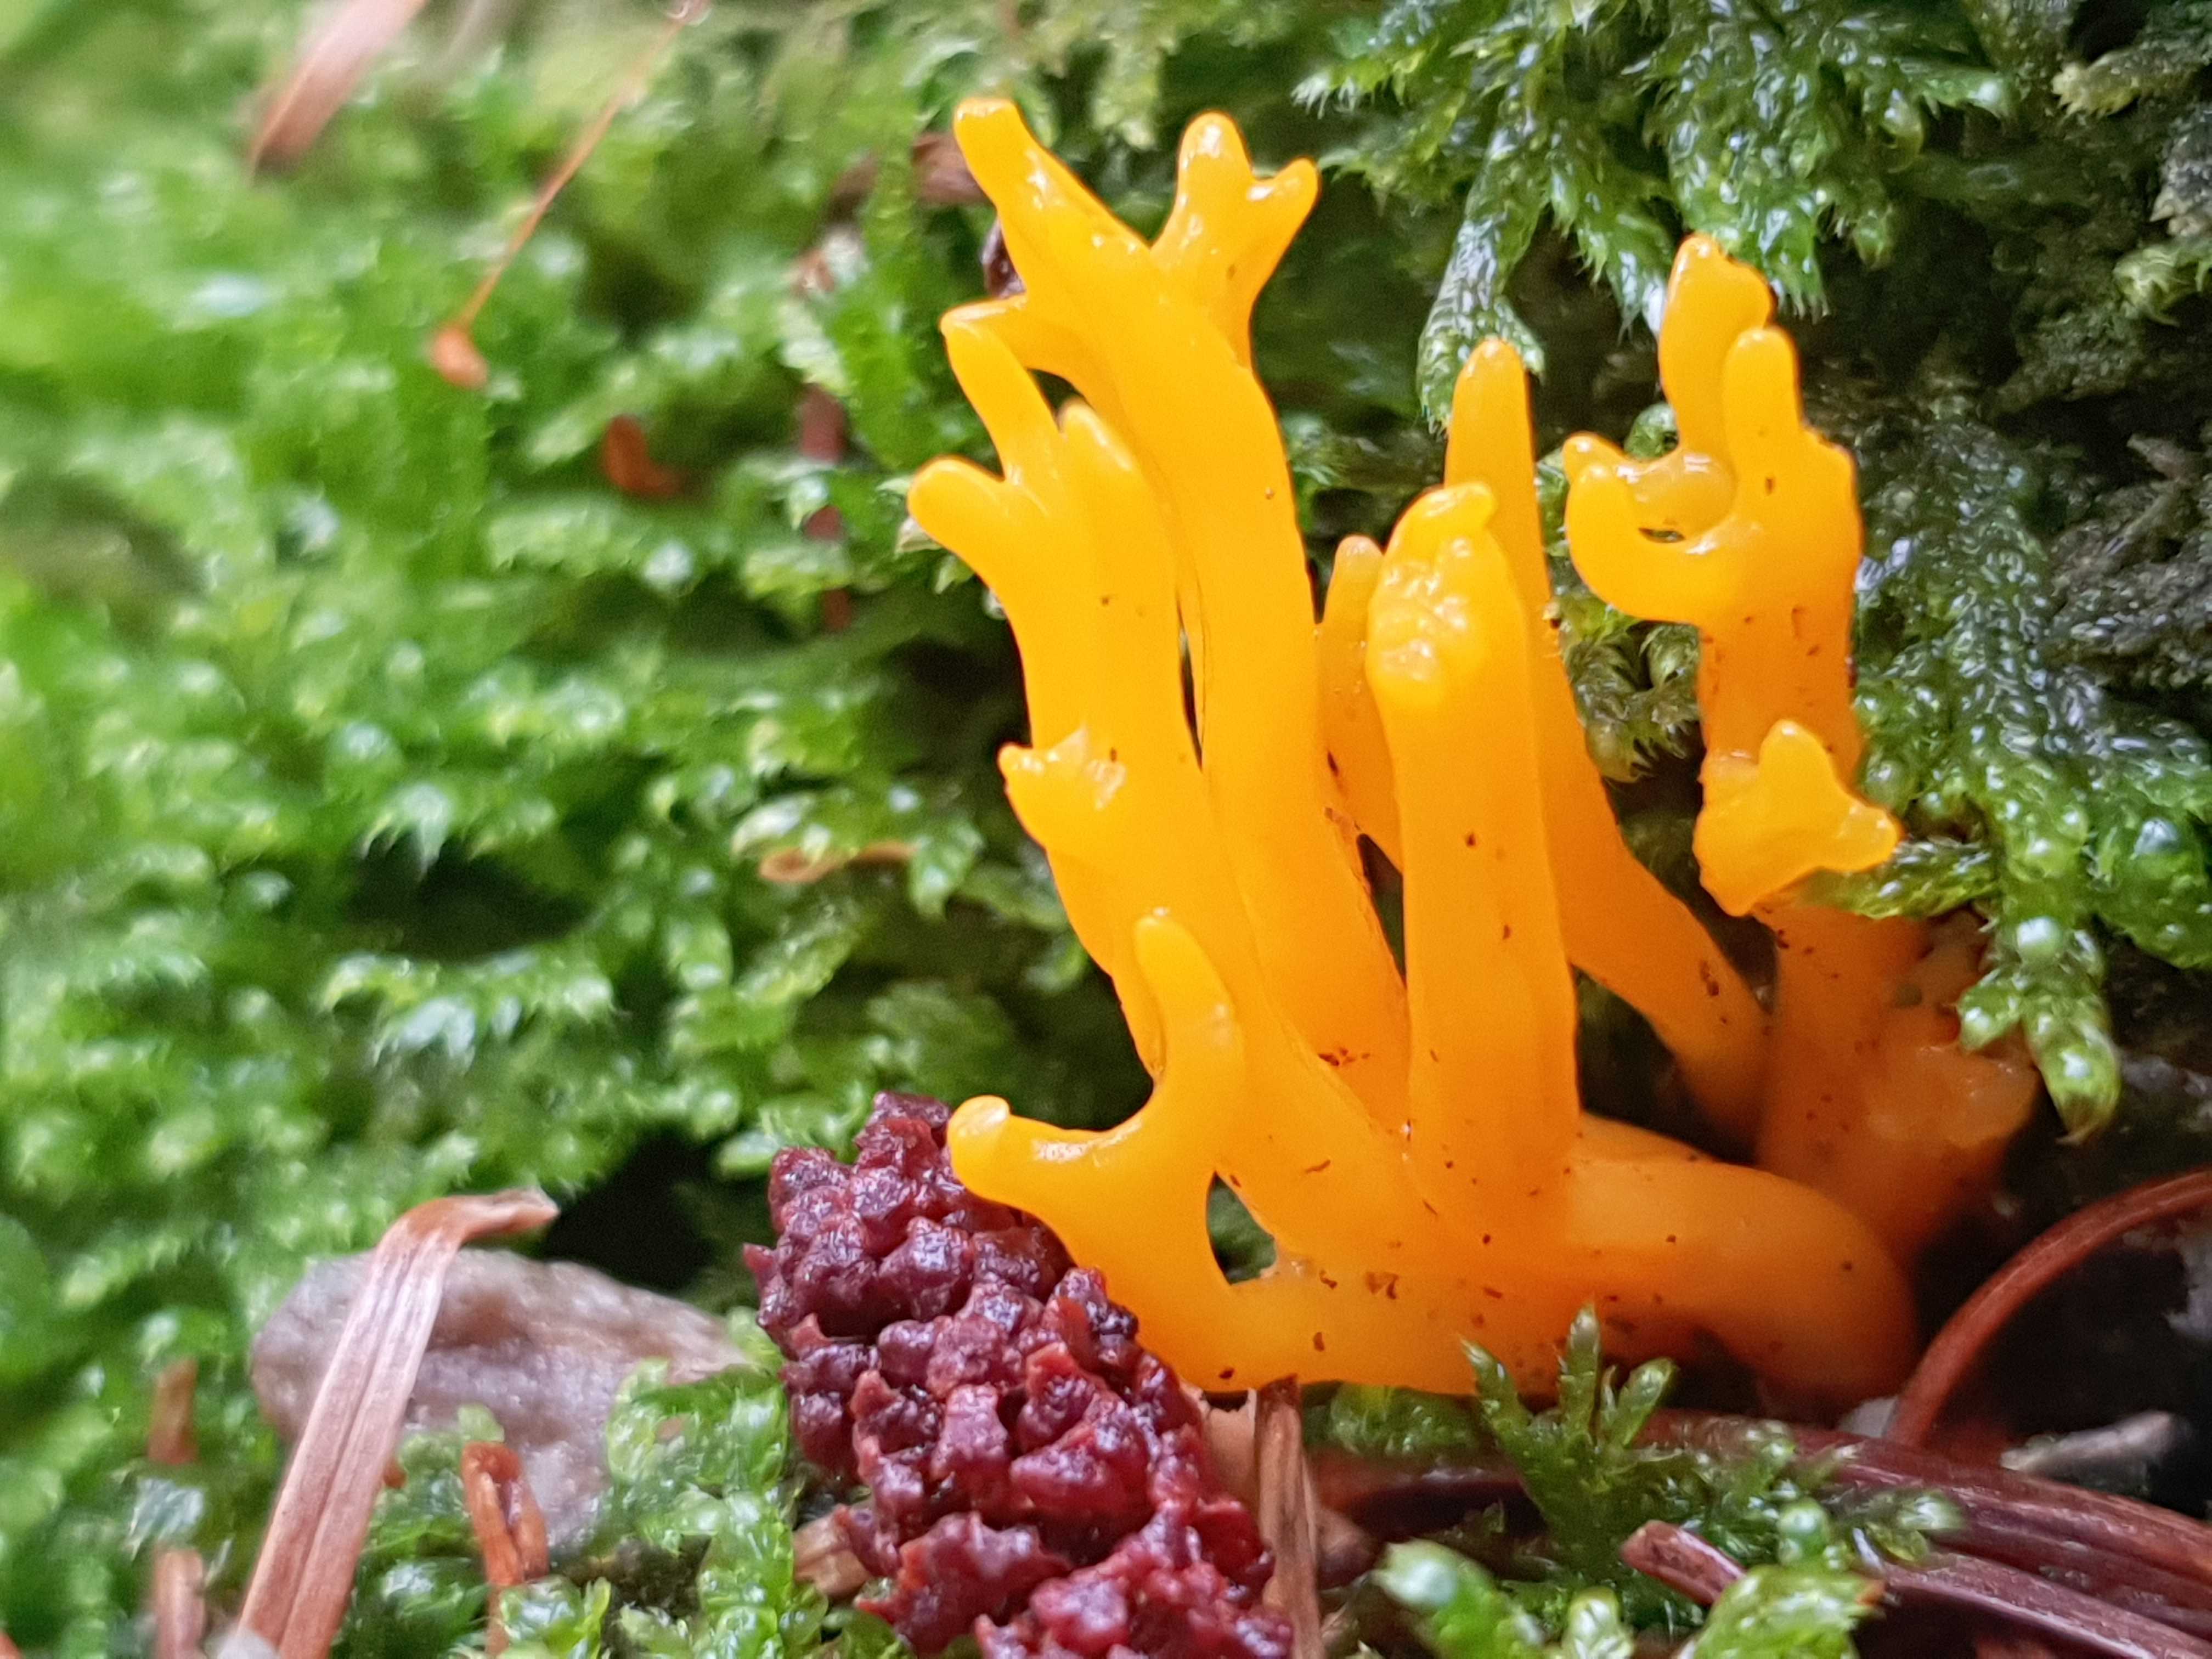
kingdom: Fungi
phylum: Basidiomycota
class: Dacrymycetes
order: Dacrymycetales
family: Dacrymycetaceae
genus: Calocera
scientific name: Calocera viscosa
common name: almindelig guldgaffel
